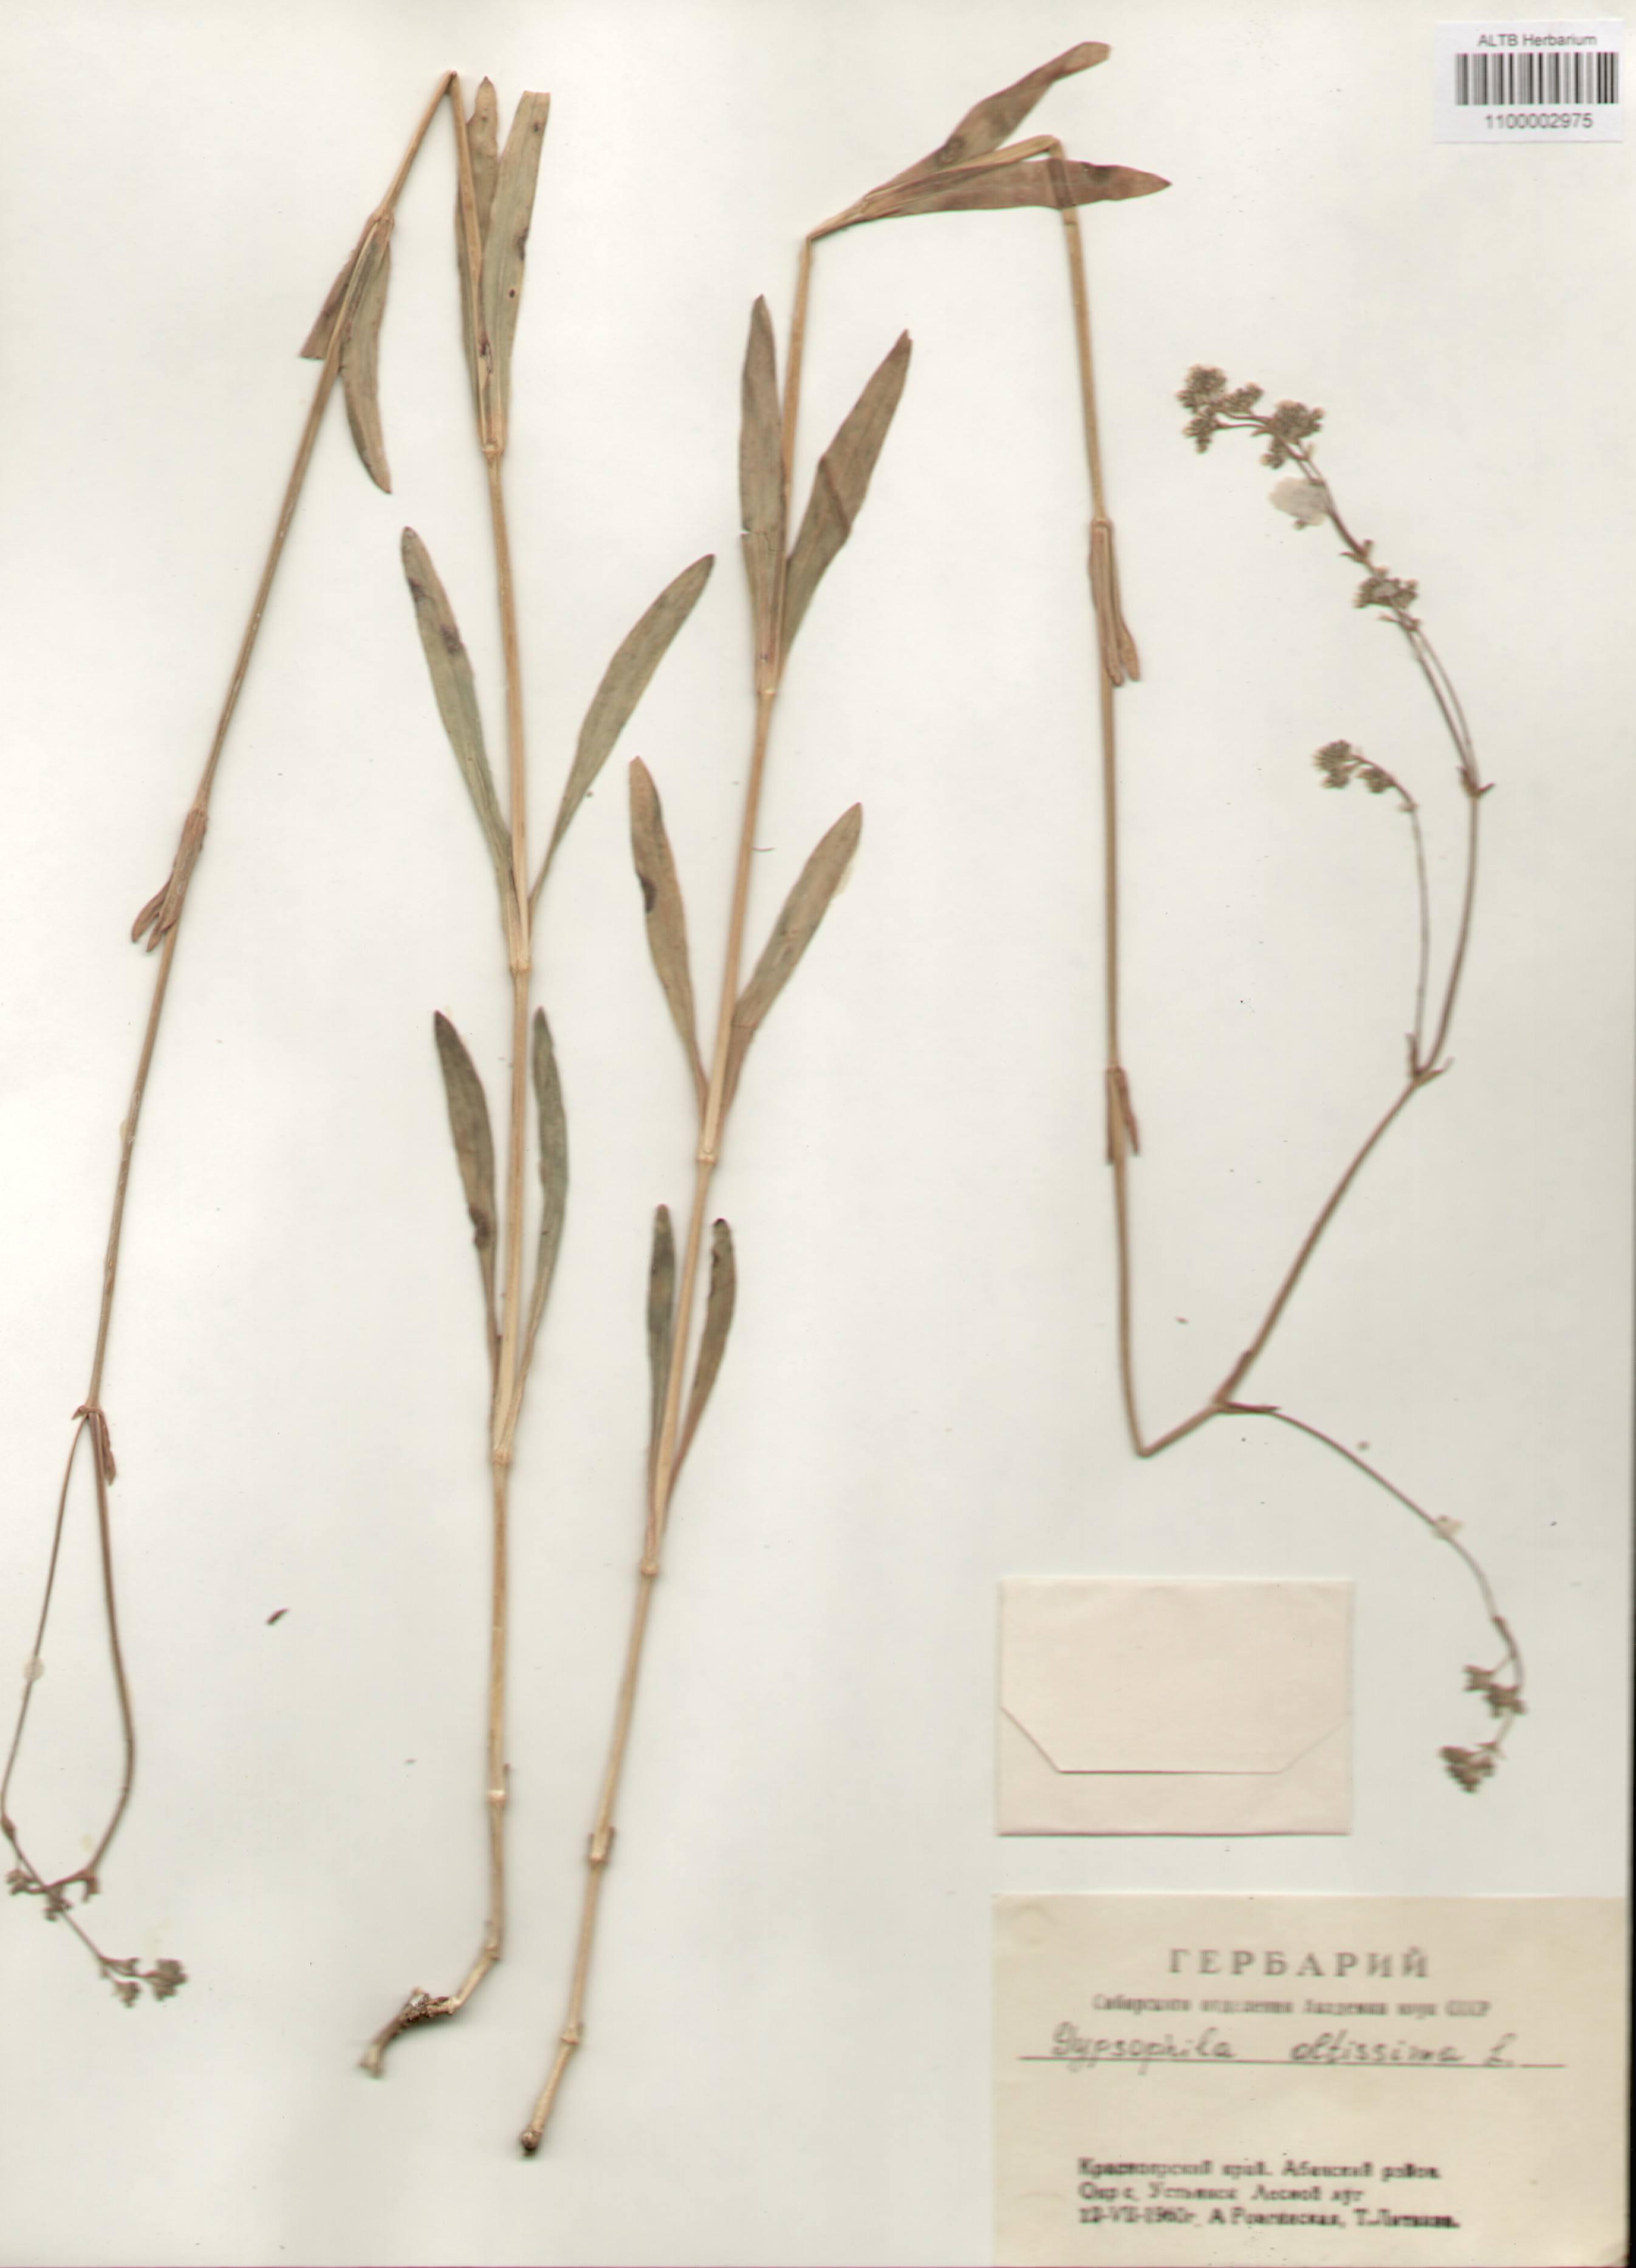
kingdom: Plantae
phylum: Tracheophyta
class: Magnoliopsida
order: Caryophyllales
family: Caryophyllaceae
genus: Gypsophila
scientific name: Gypsophila altissima
